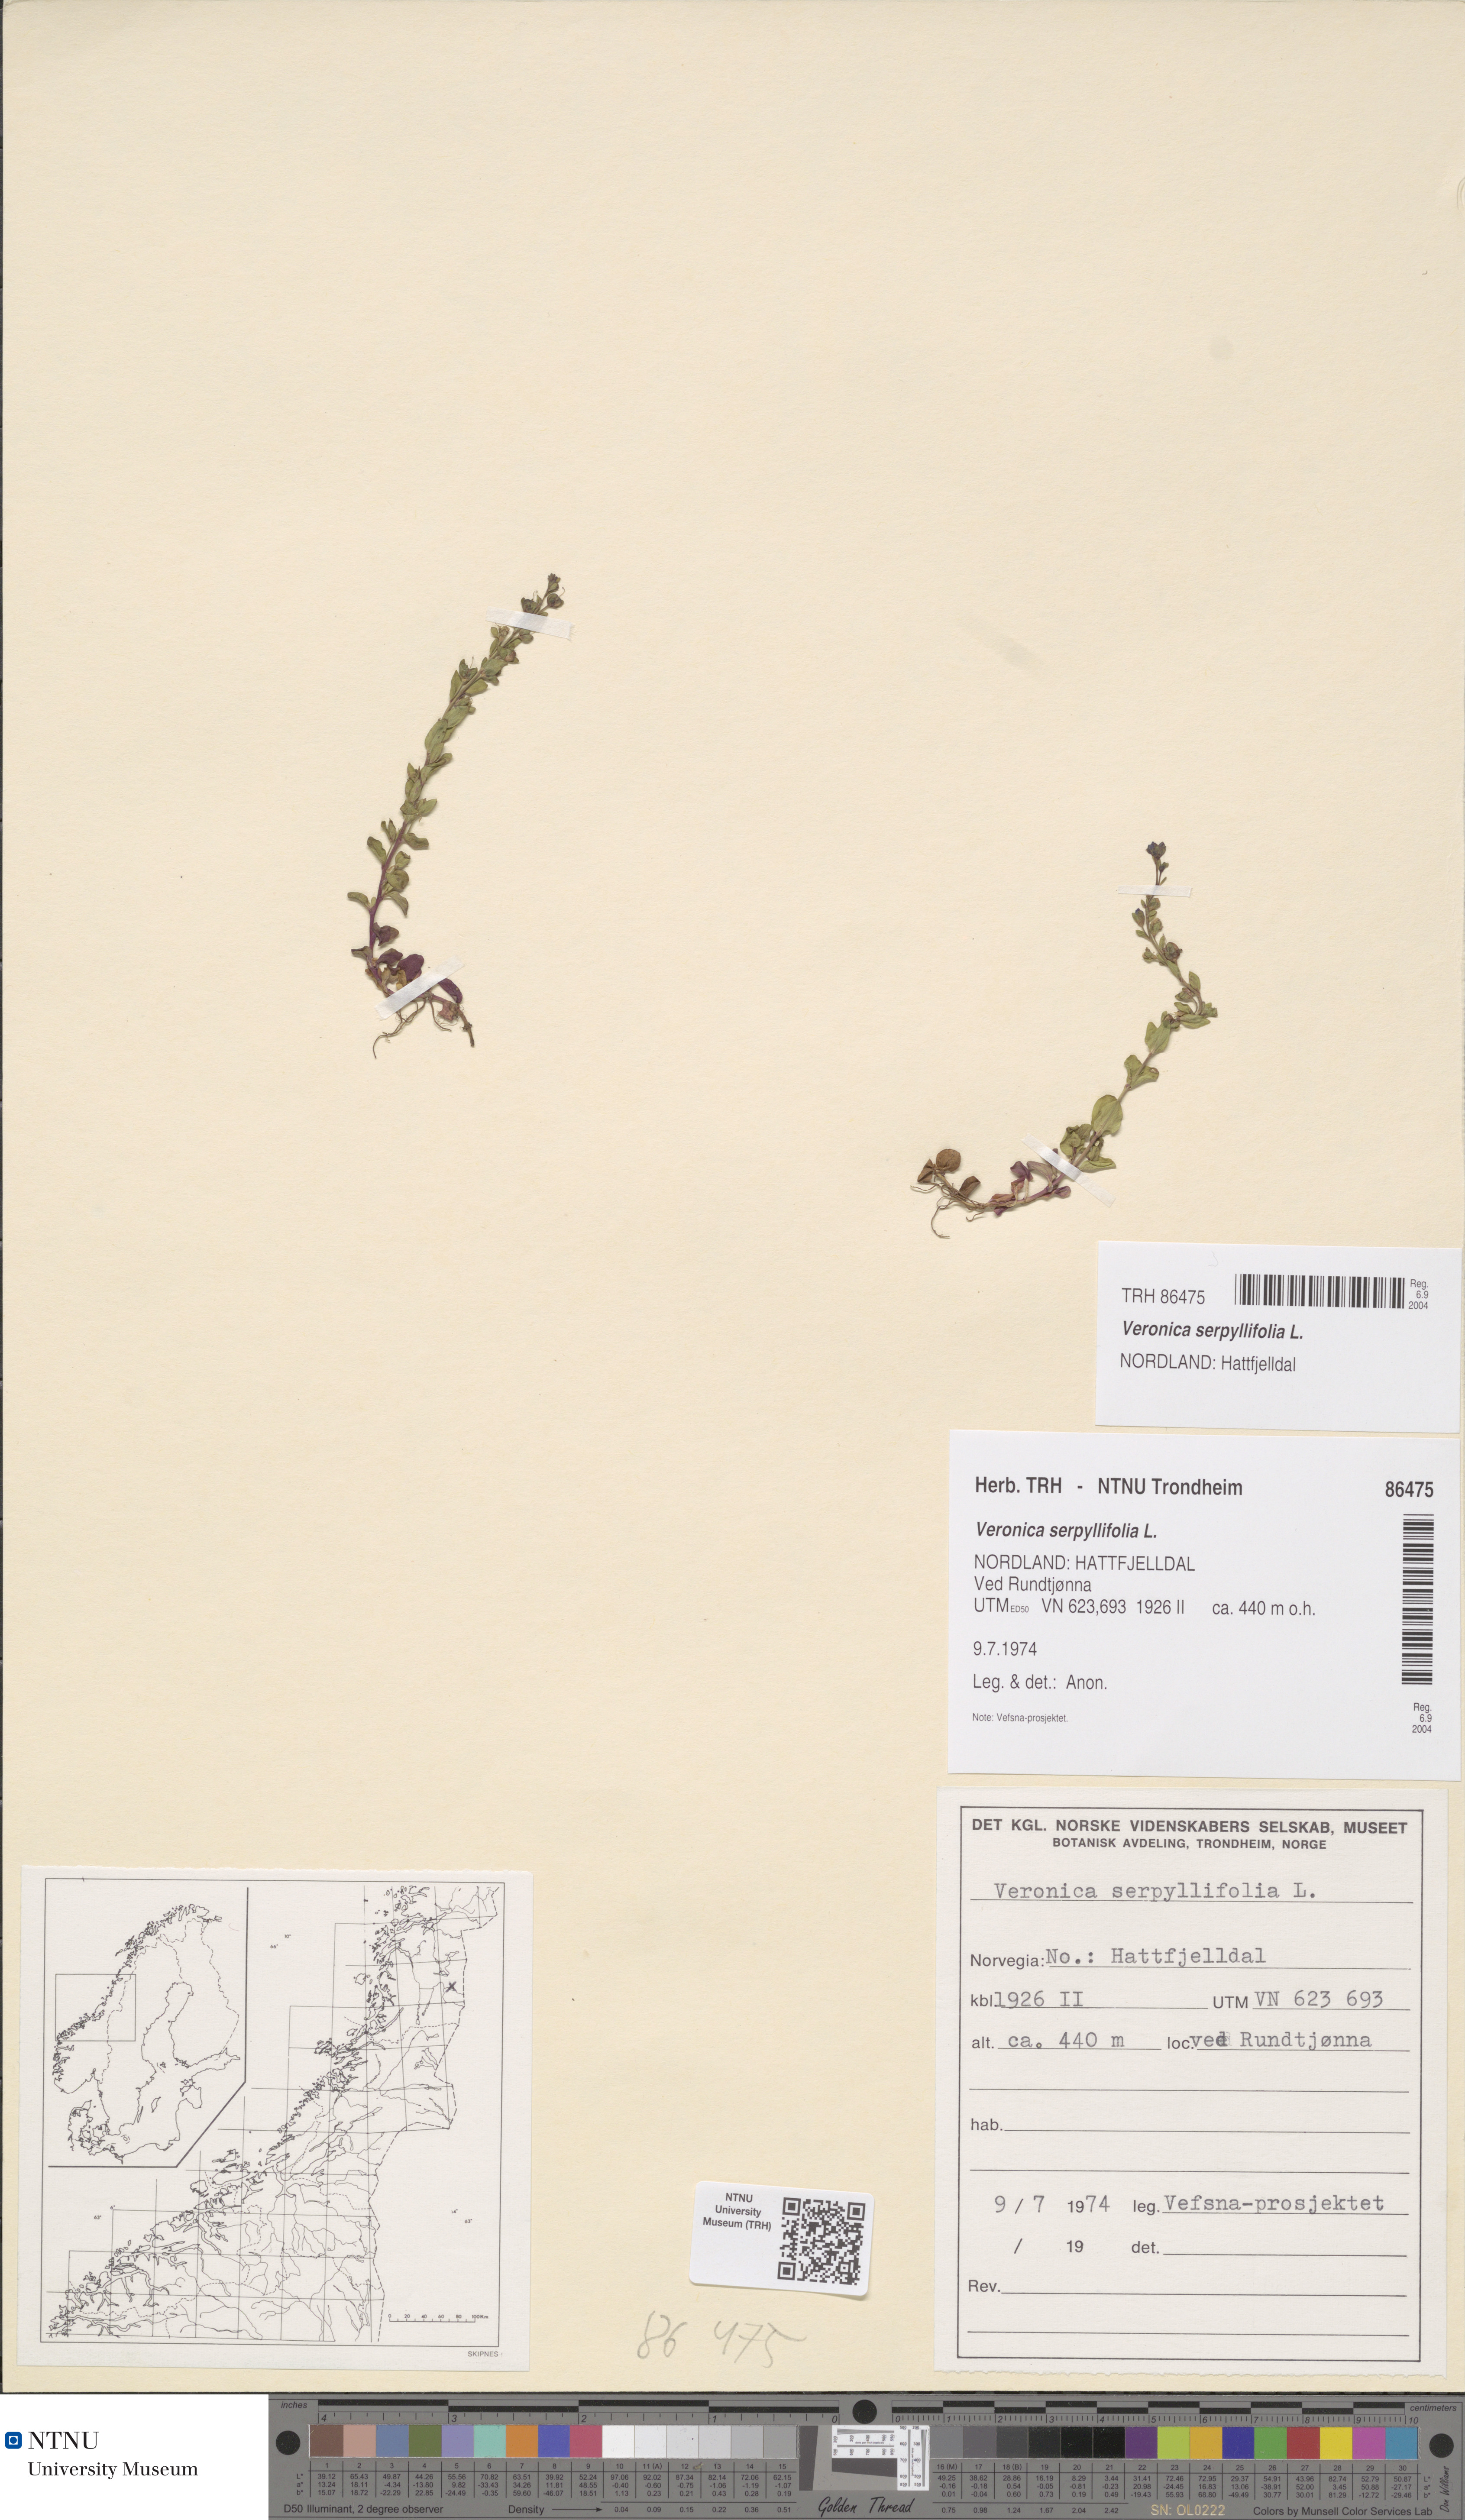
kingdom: Plantae
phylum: Tracheophyta
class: Magnoliopsida
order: Lamiales
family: Plantaginaceae
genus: Veronica
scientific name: Veronica serpyllifolia
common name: Thyme-leaved speedwell
